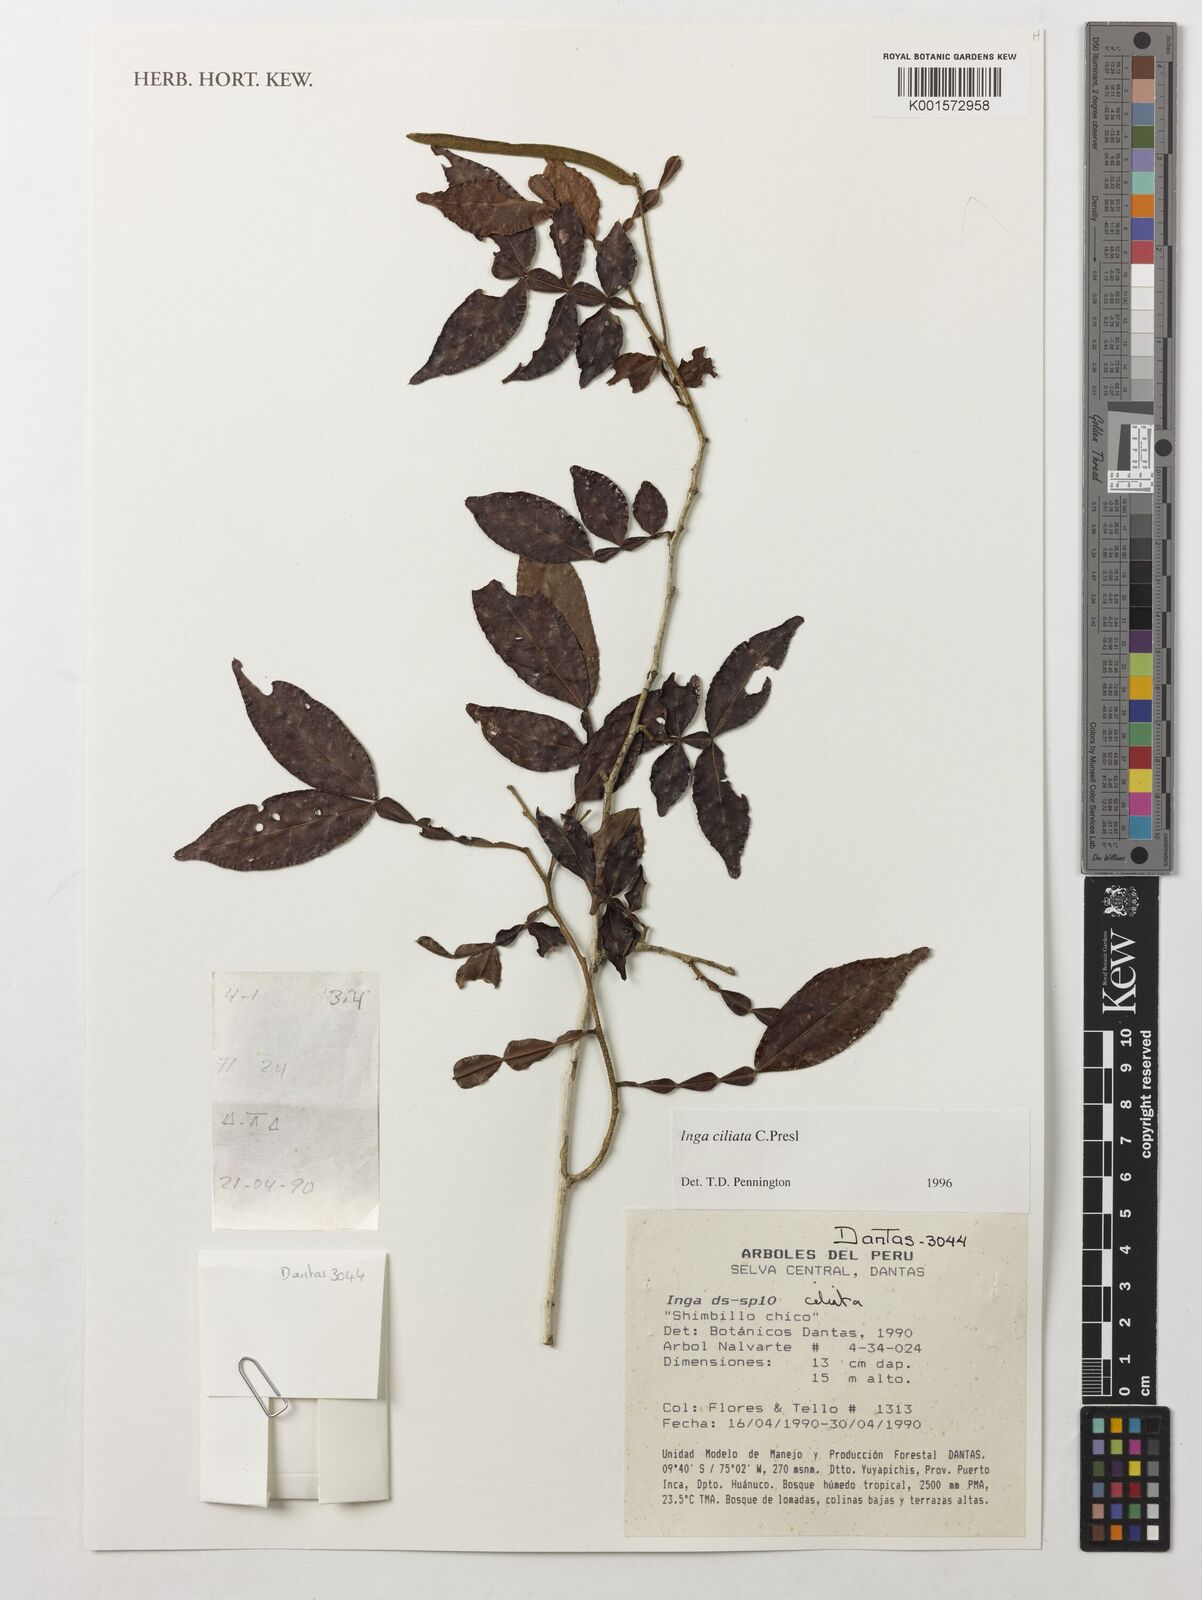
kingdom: Plantae
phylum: Tracheophyta
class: Magnoliopsida
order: Fabales
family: Fabaceae
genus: Inga
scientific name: Inga ciliata
